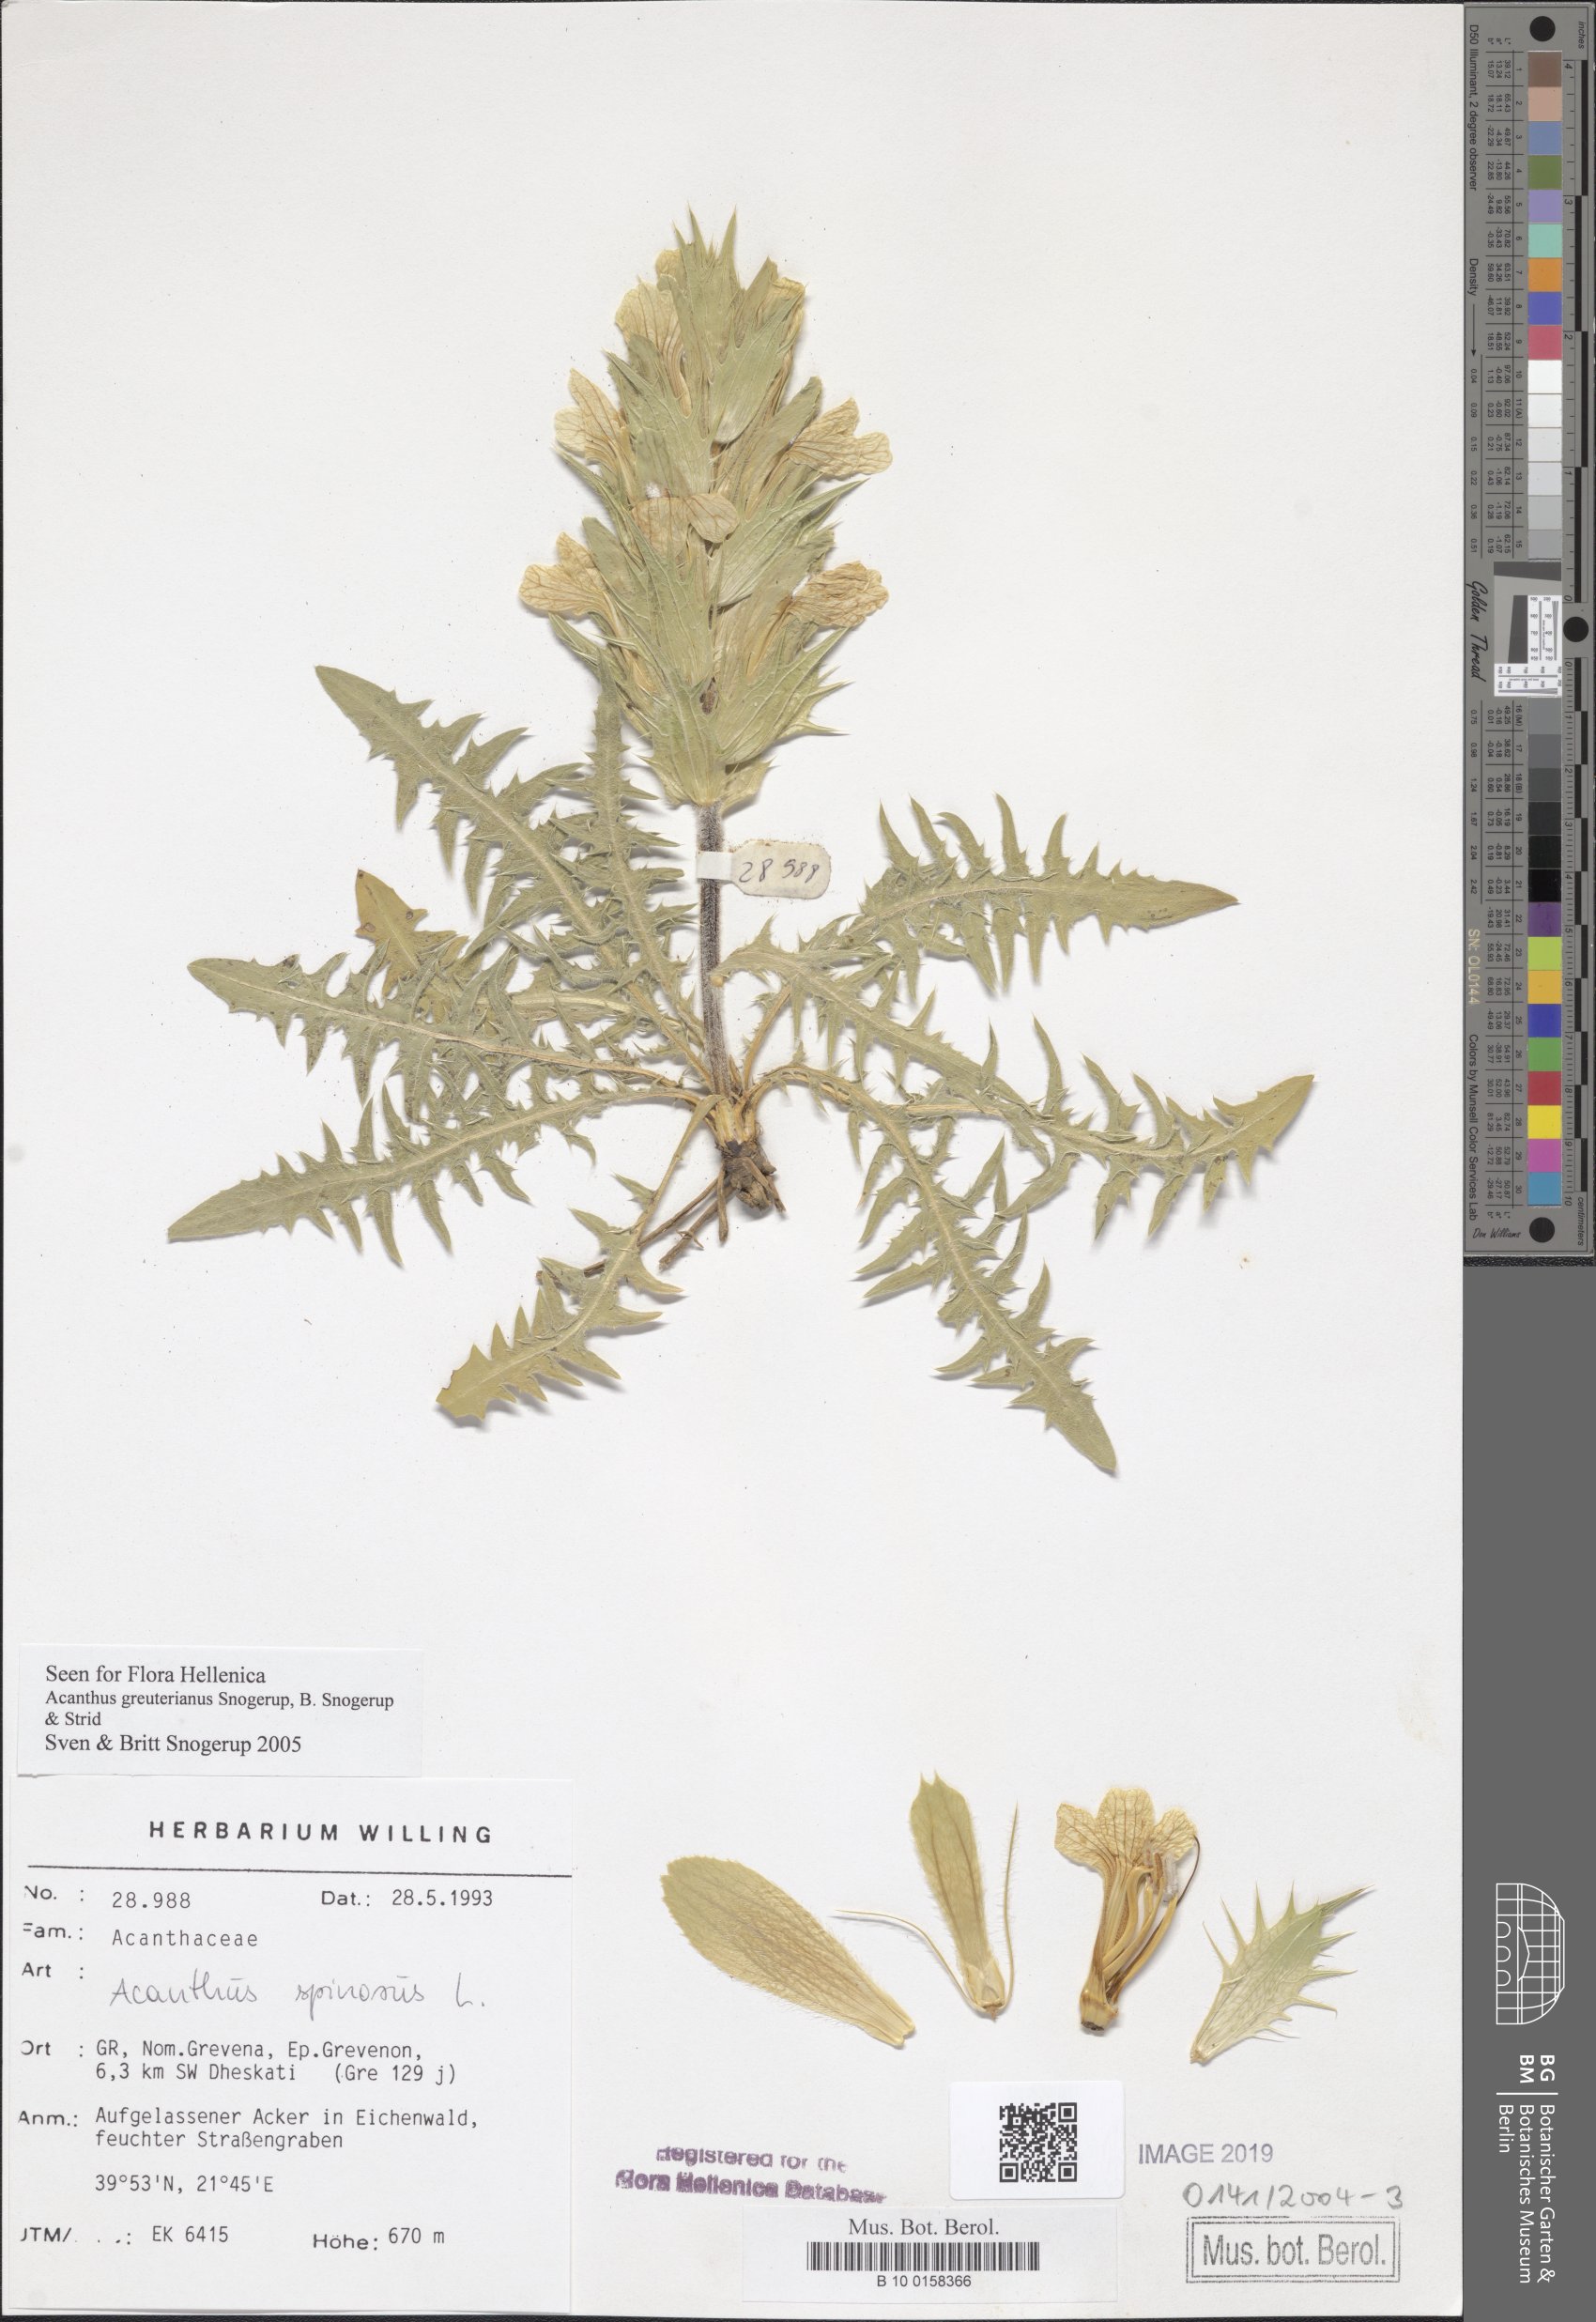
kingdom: Plantae
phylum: Tracheophyta
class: Magnoliopsida
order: Lamiales
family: Acanthaceae
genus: Acanthus
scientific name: Acanthus greuterianus
